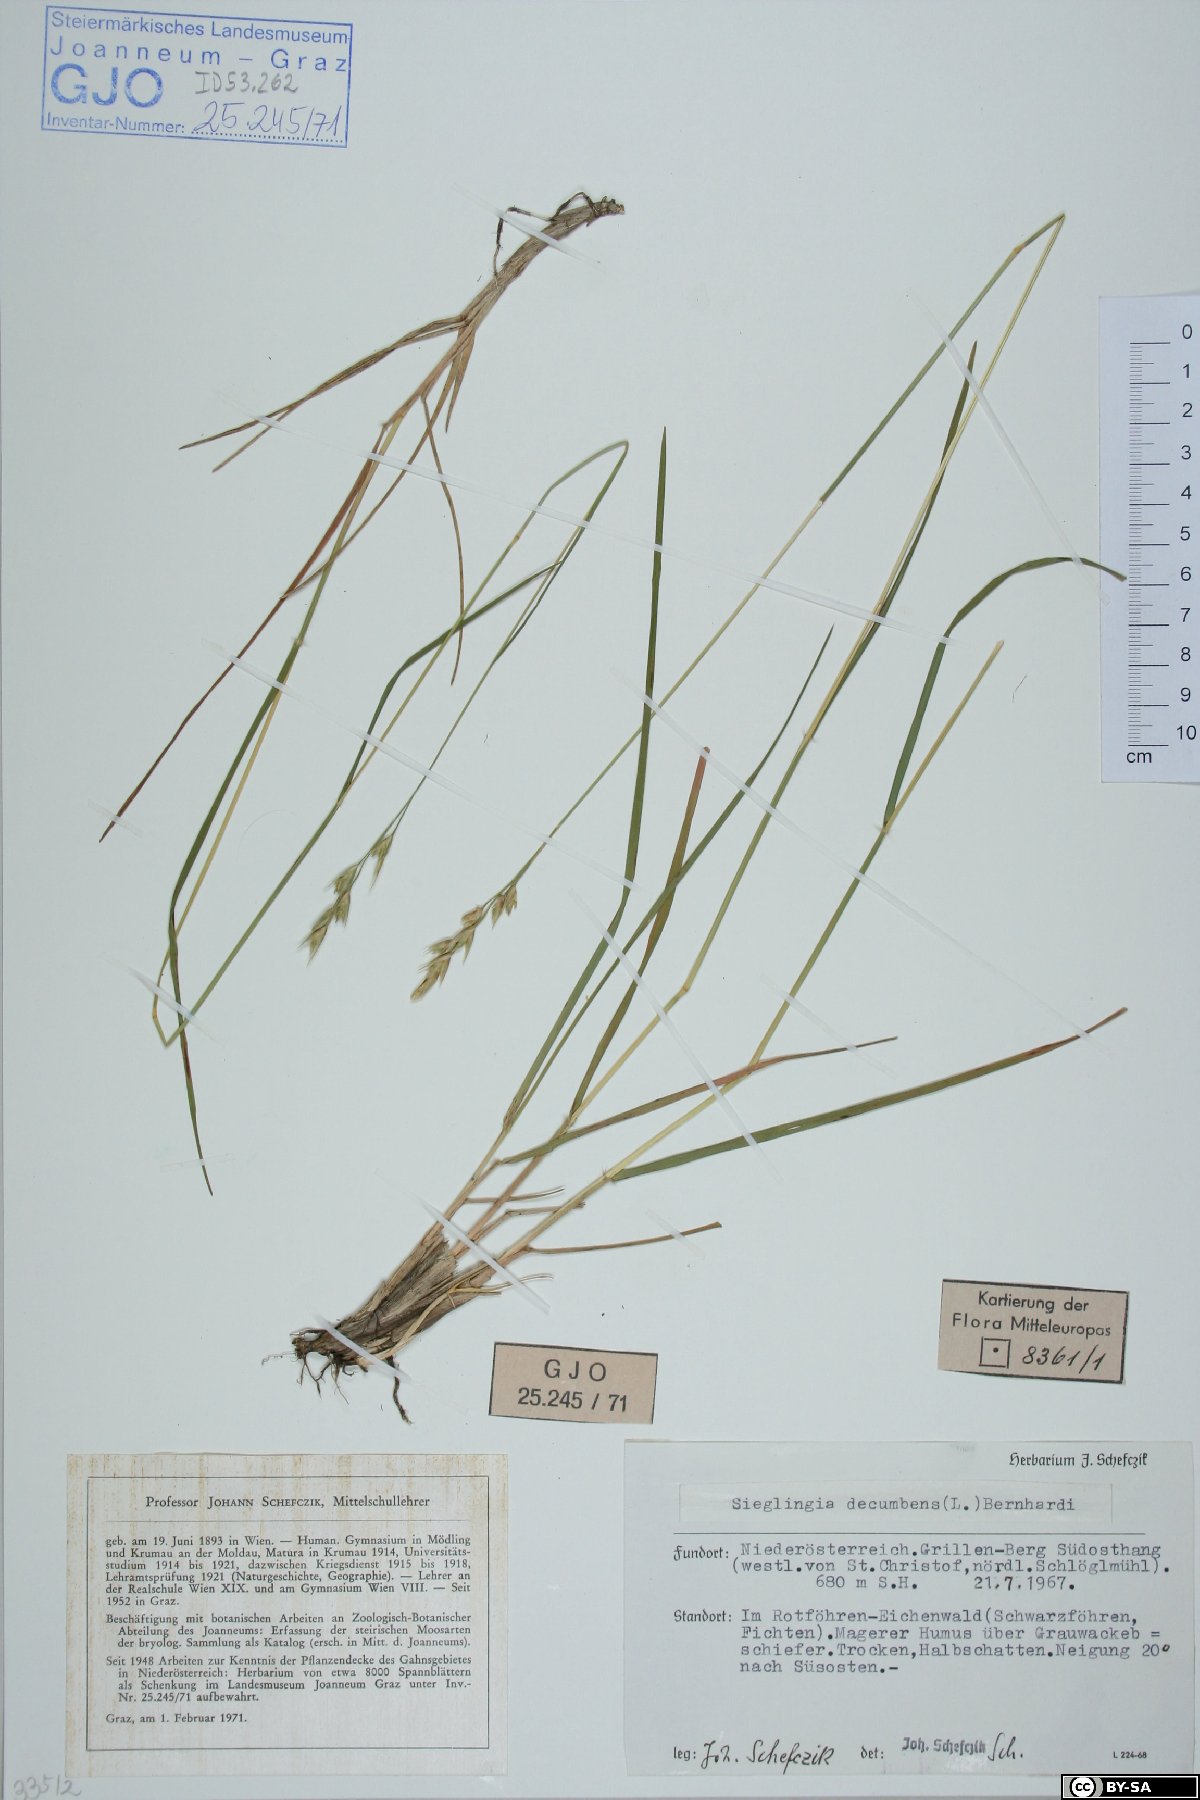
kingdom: Plantae
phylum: Tracheophyta
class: Liliopsida
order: Poales
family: Poaceae
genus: Danthonia
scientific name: Danthonia decumbens
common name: Common heathgrass
